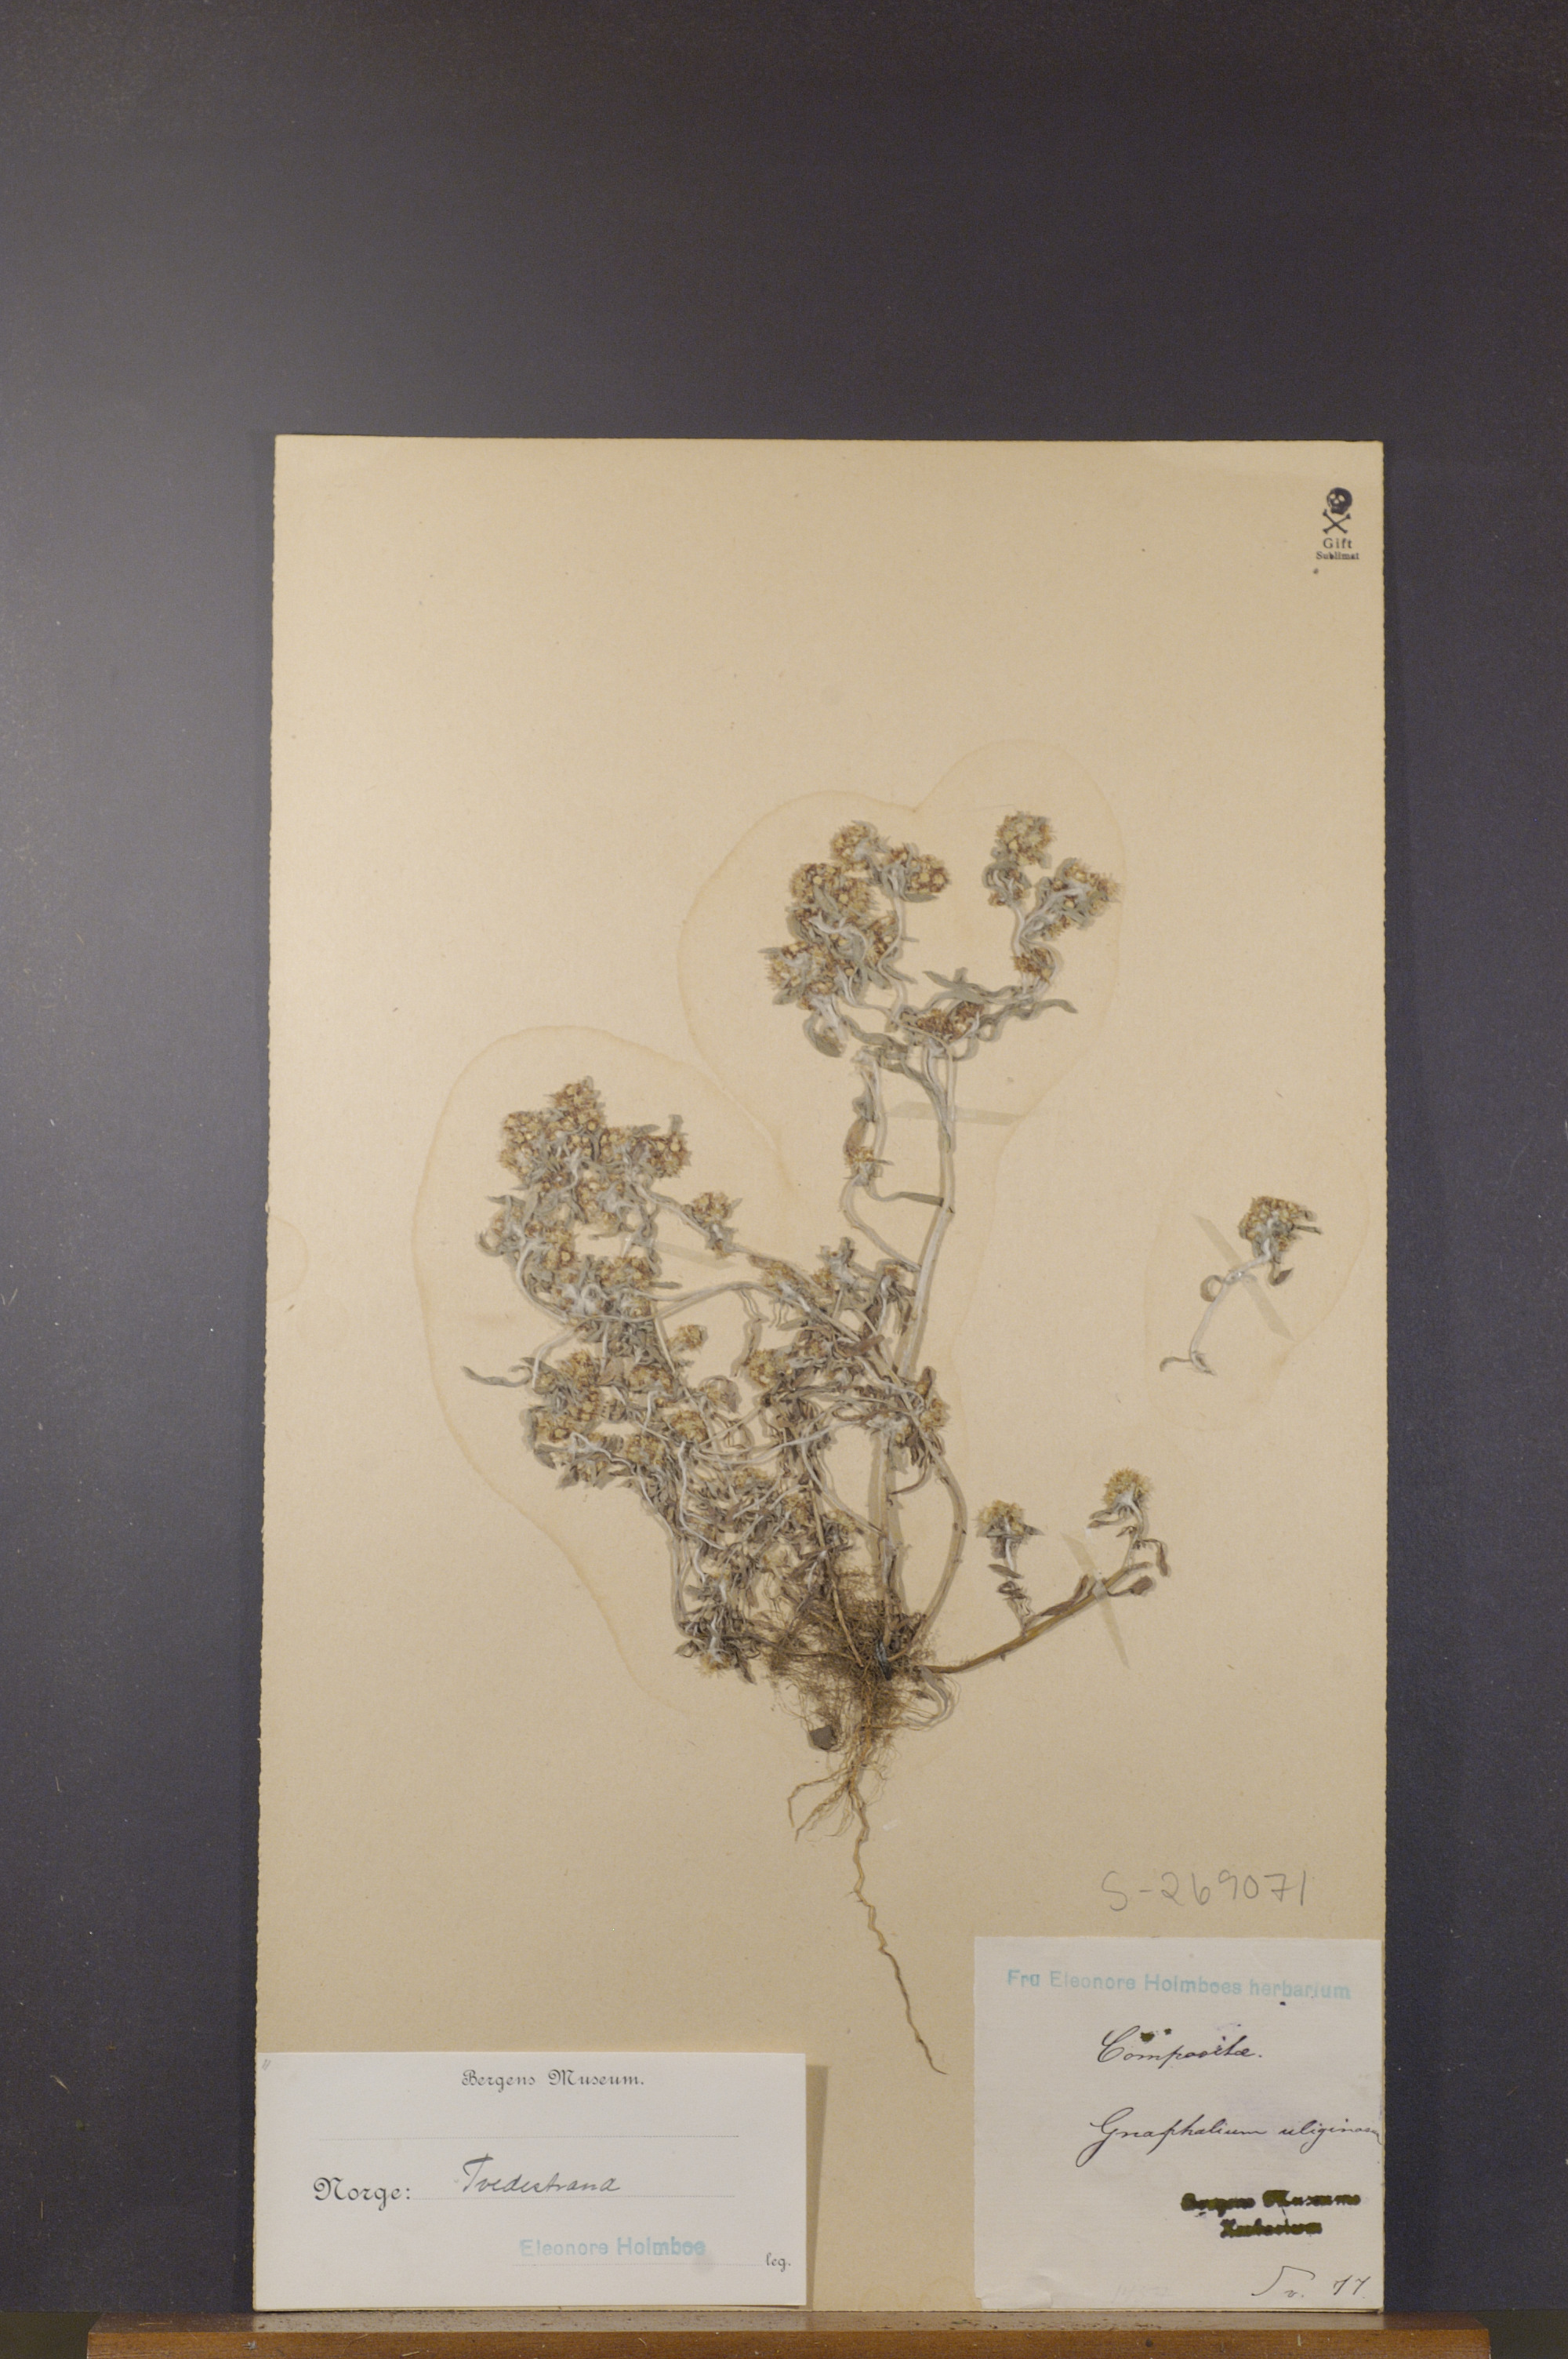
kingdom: Plantae
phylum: Tracheophyta
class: Magnoliopsida
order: Asterales
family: Asteraceae
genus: Gnaphalium
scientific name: Gnaphalium uliginosum
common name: Marsh cudweed
